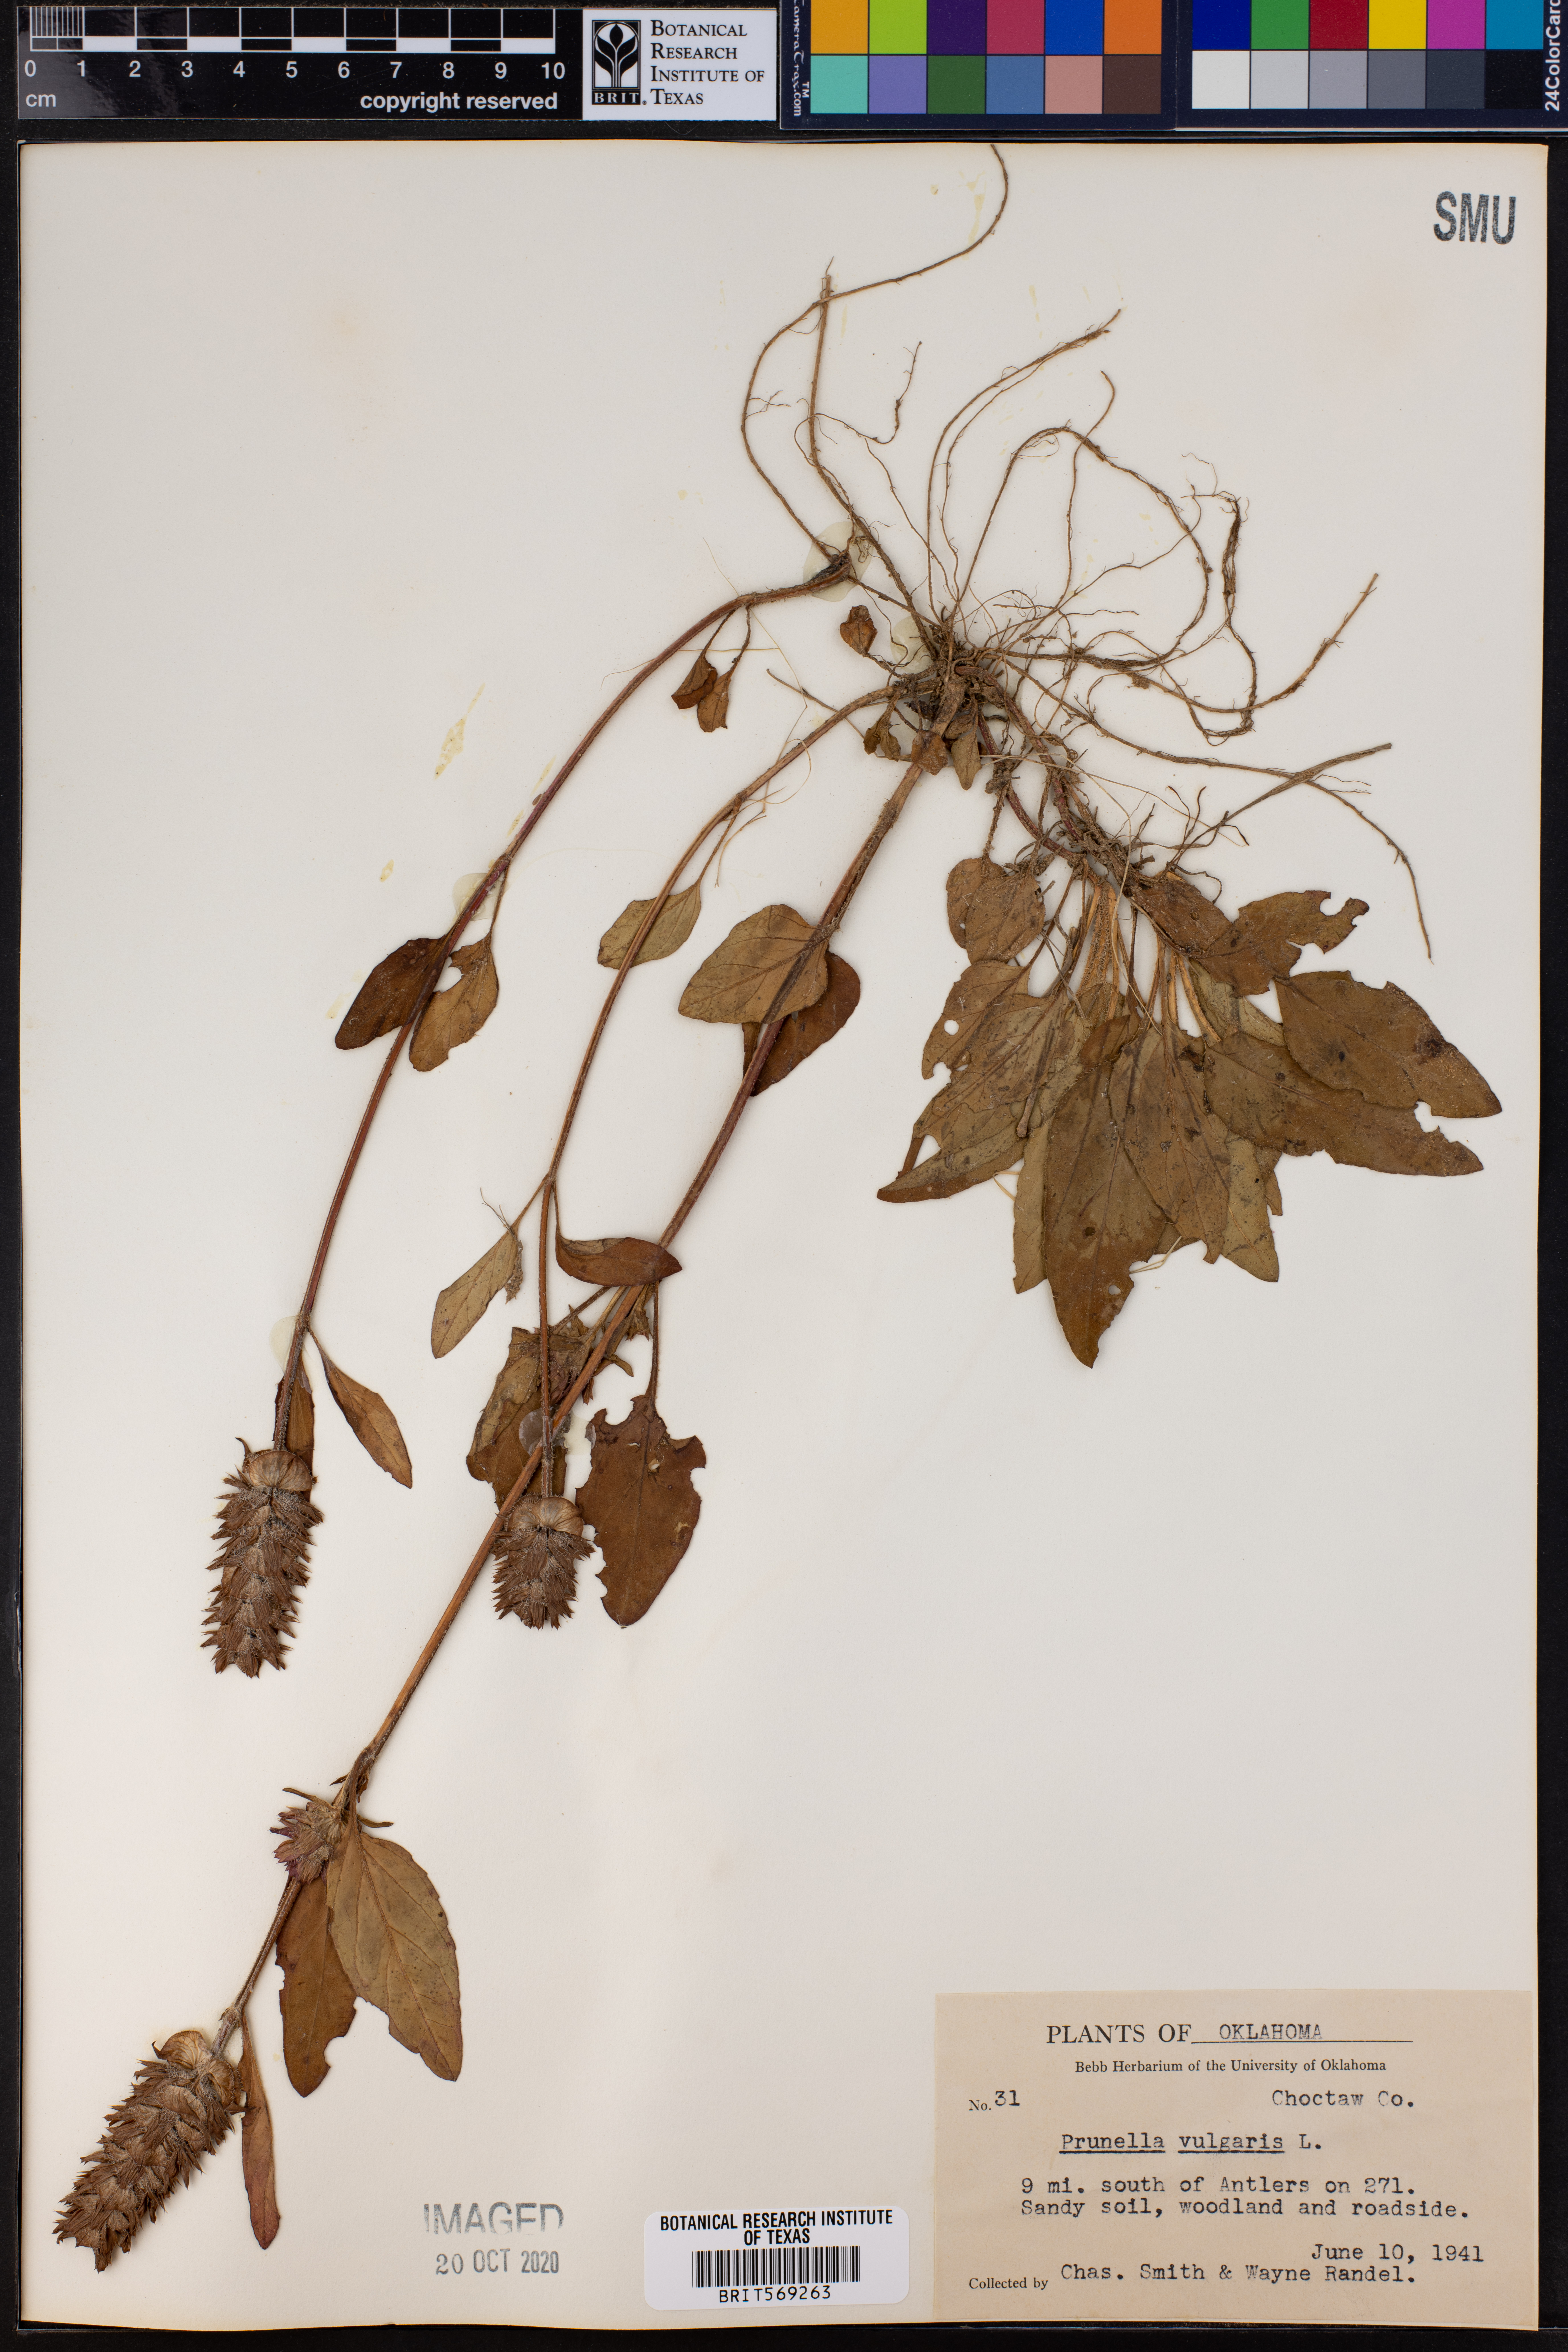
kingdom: Plantae
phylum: Tracheophyta
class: Magnoliopsida
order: Lamiales
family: Lamiaceae
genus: Prunella
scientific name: Prunella vulgaris
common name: Heal-all
